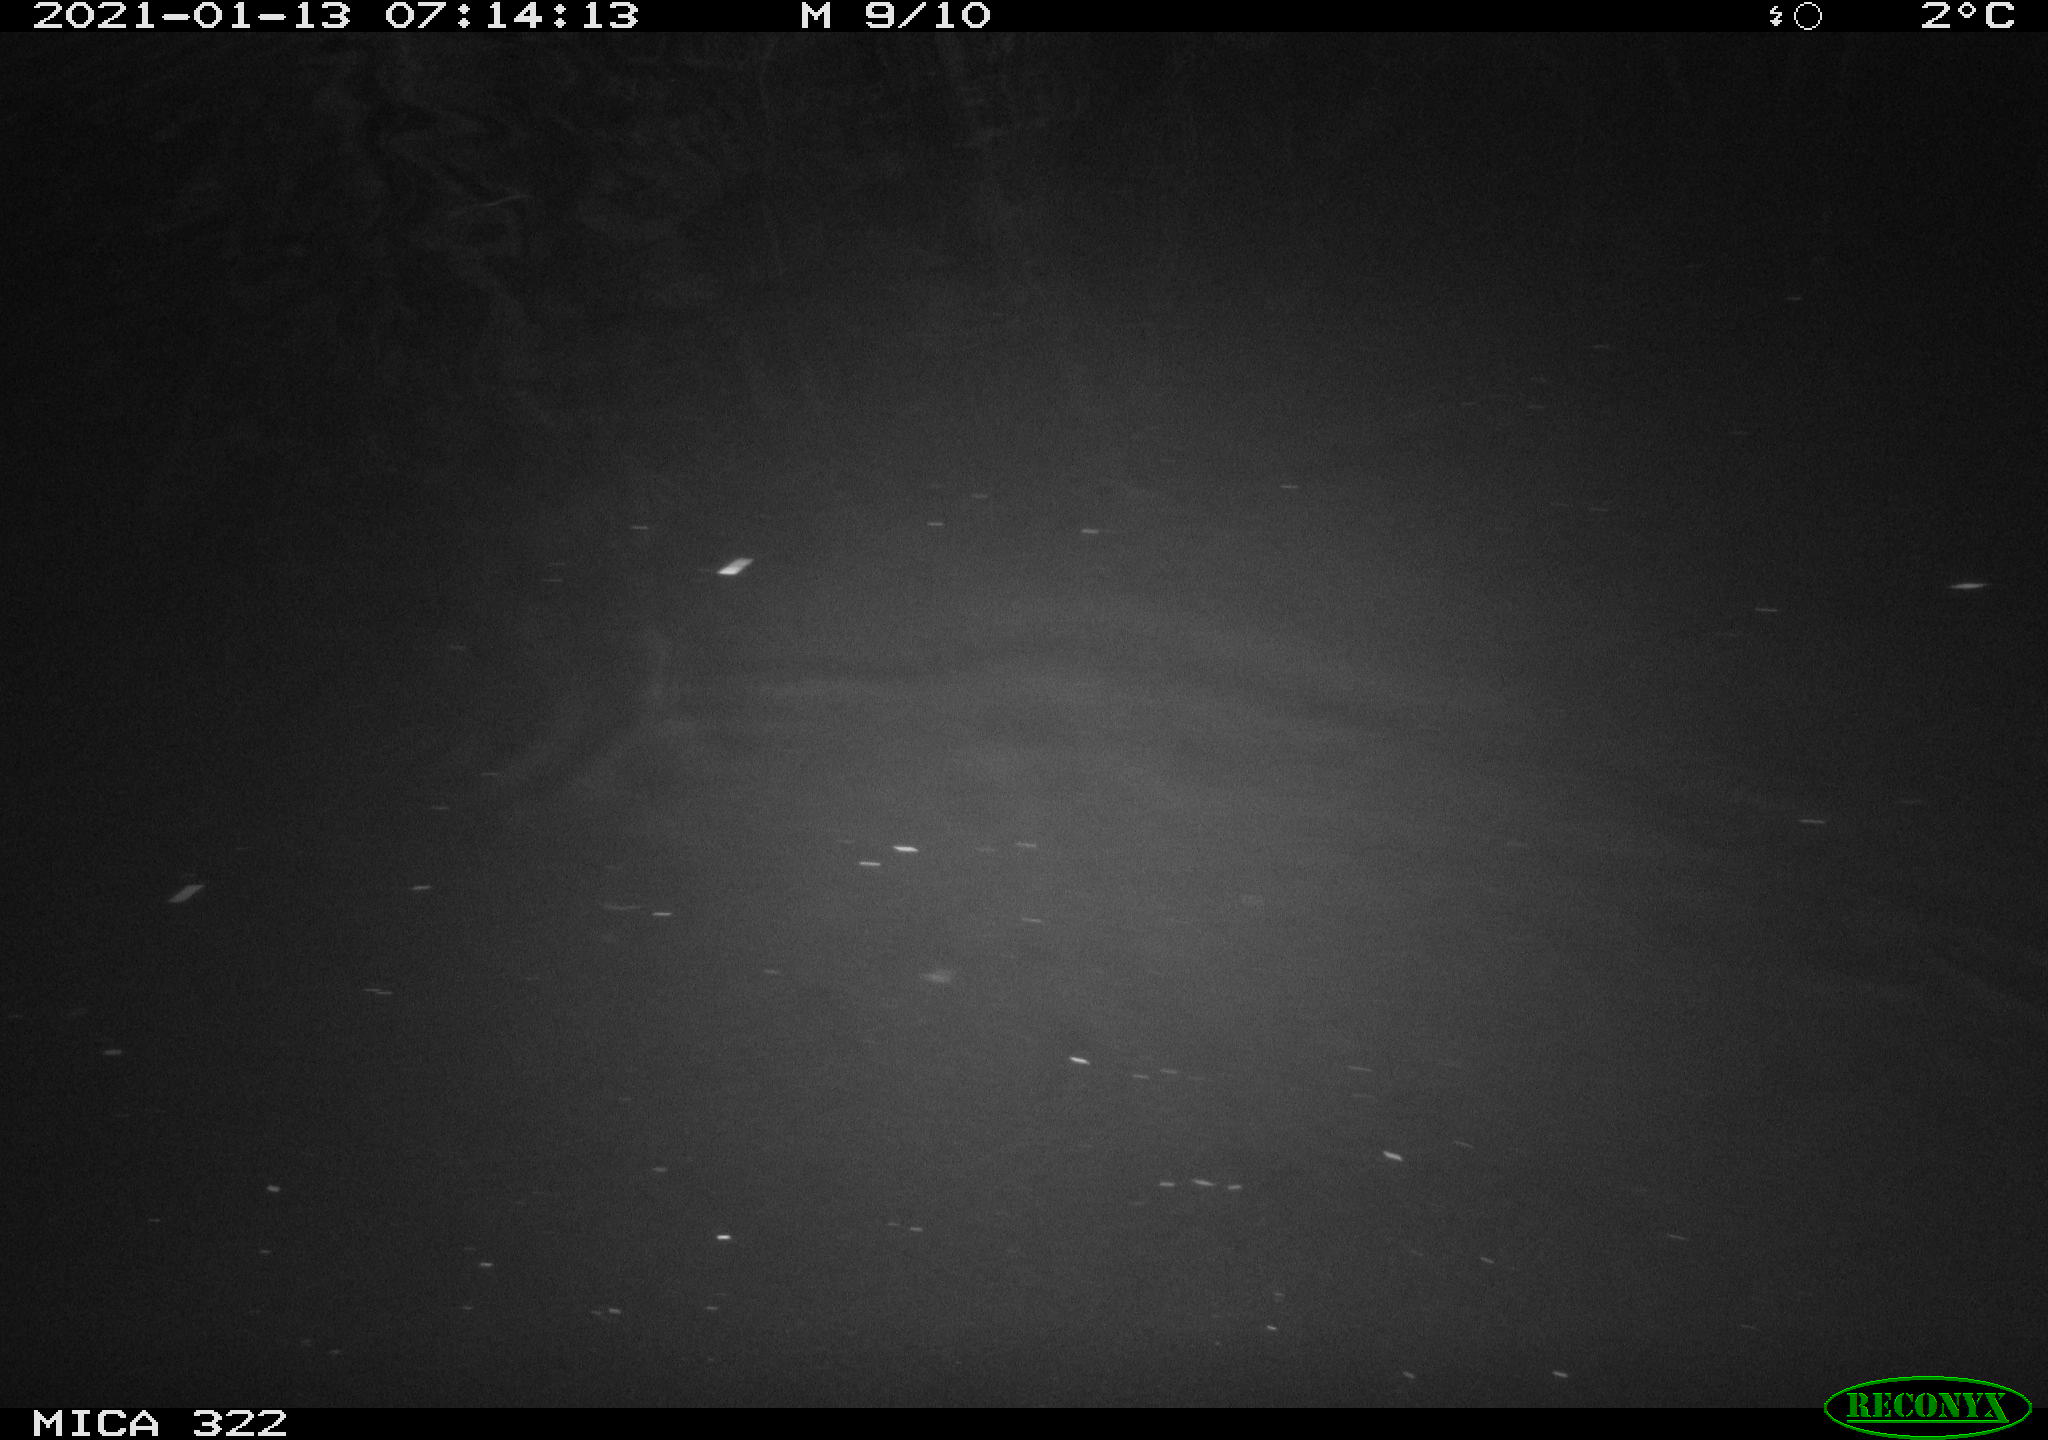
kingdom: Animalia
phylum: Chordata
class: Mammalia
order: Rodentia
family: Muridae
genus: Rattus
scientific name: Rattus norvegicus
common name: Brown rat
